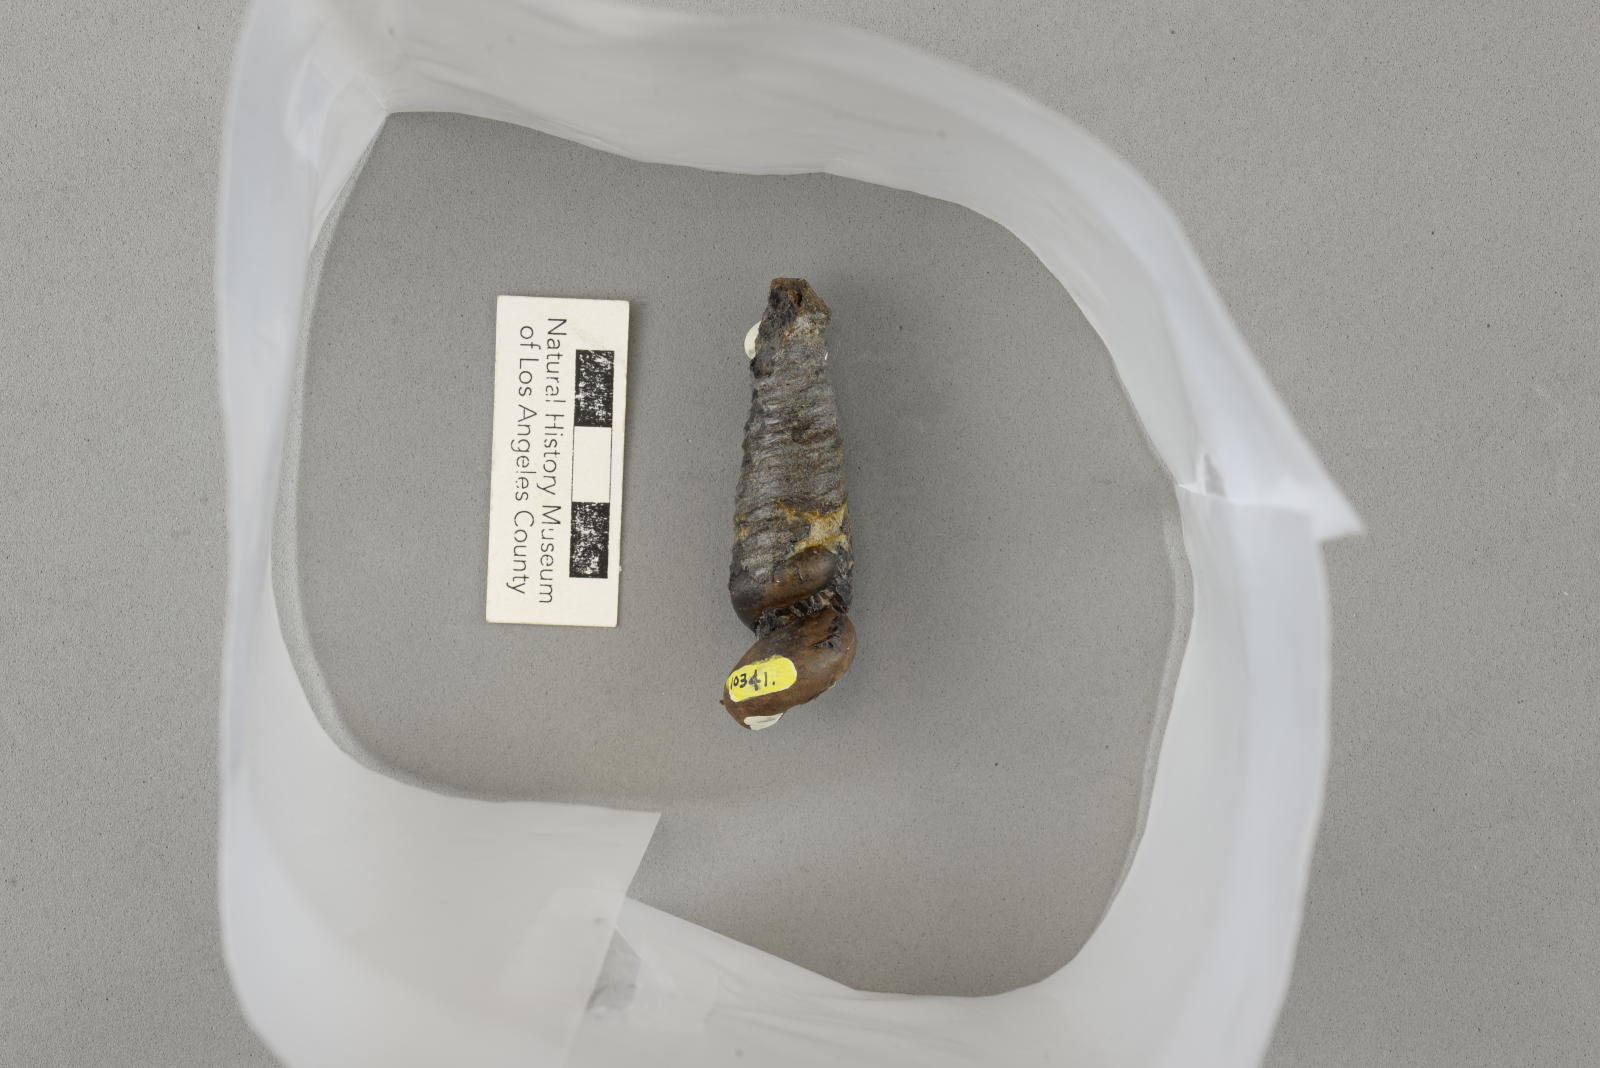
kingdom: Animalia
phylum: Mollusca
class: Gastropoda
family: Turritellidae
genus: Turritella
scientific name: Turritella
